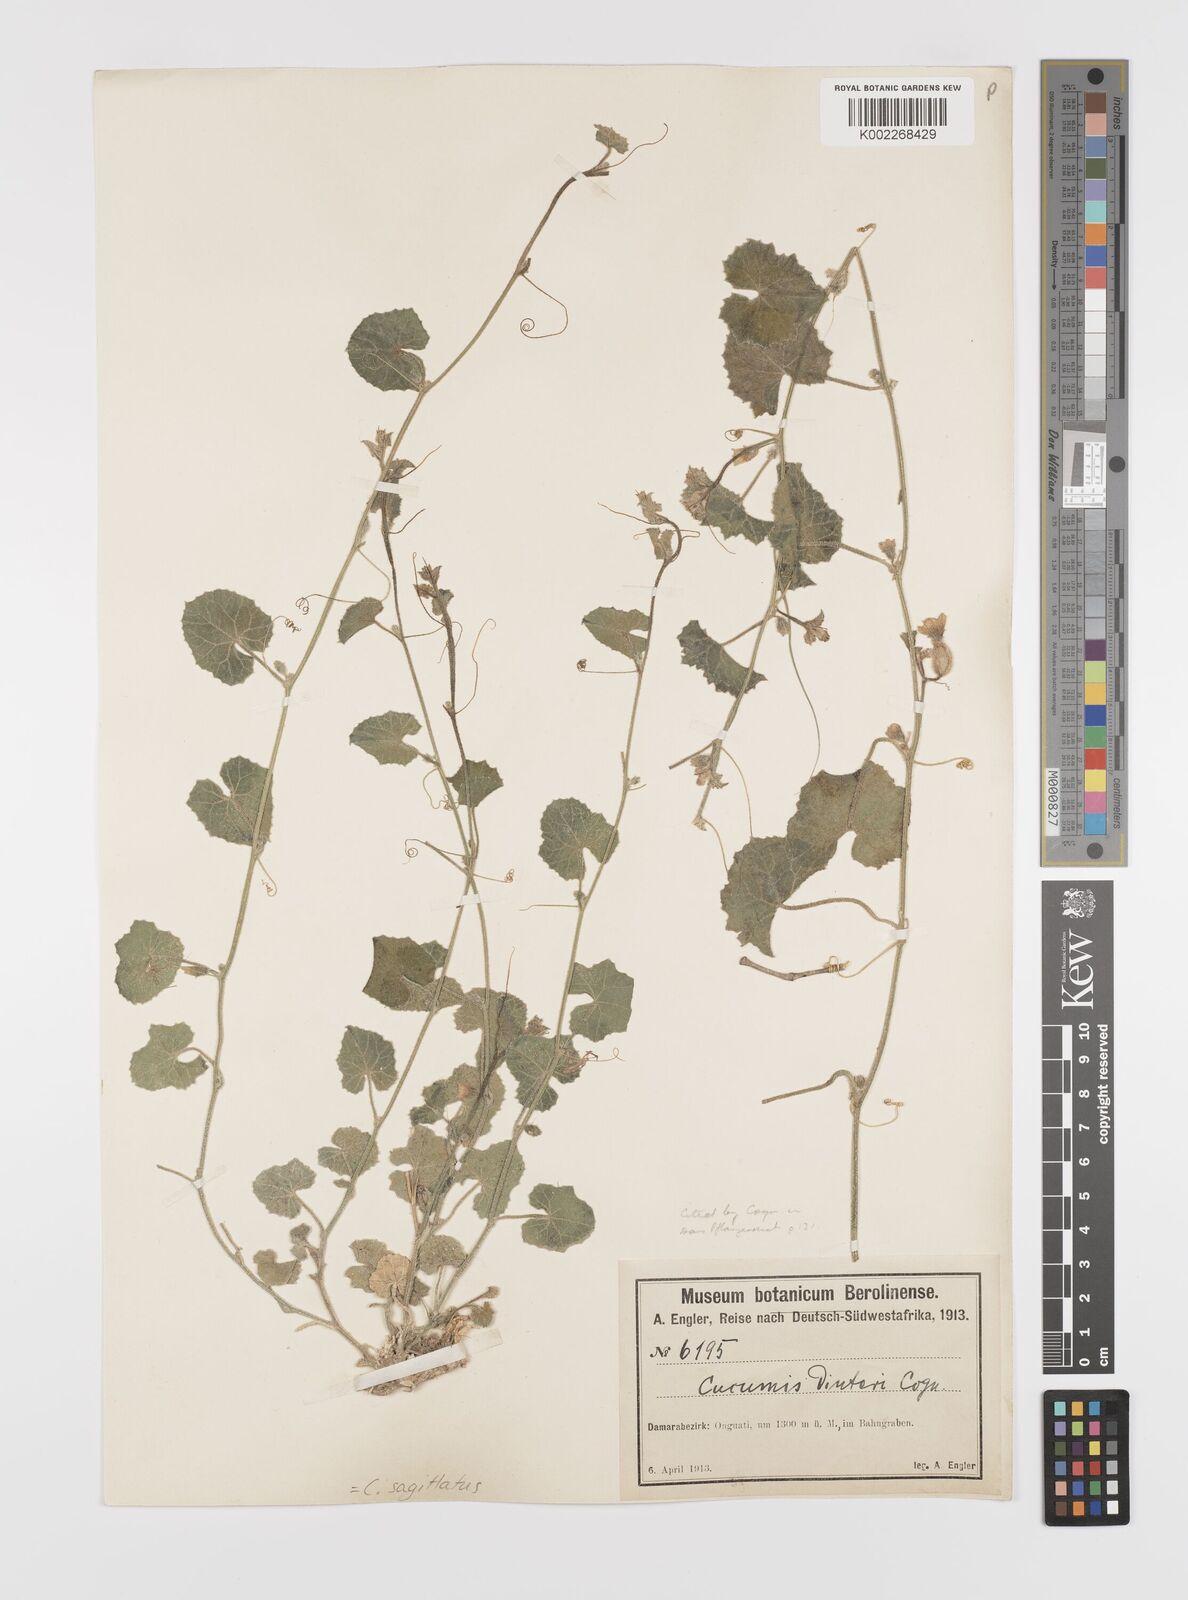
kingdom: Plantae
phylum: Tracheophyta
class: Magnoliopsida
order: Cucurbitales
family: Cucurbitaceae
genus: Cucumis
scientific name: Cucumis sagittatus
